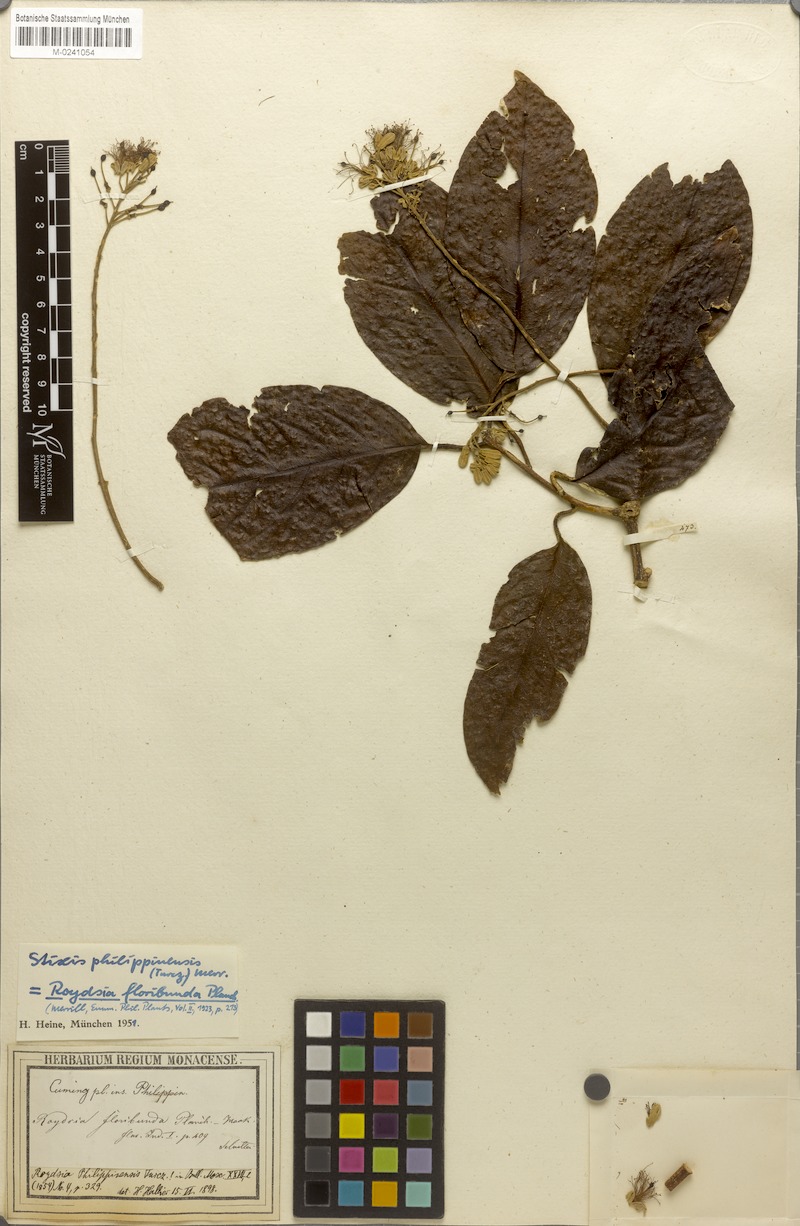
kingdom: Plantae
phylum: Tracheophyta
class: Magnoliopsida
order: Brassicales
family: Stixaceae
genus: Stixis
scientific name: Stixis philippinensis
